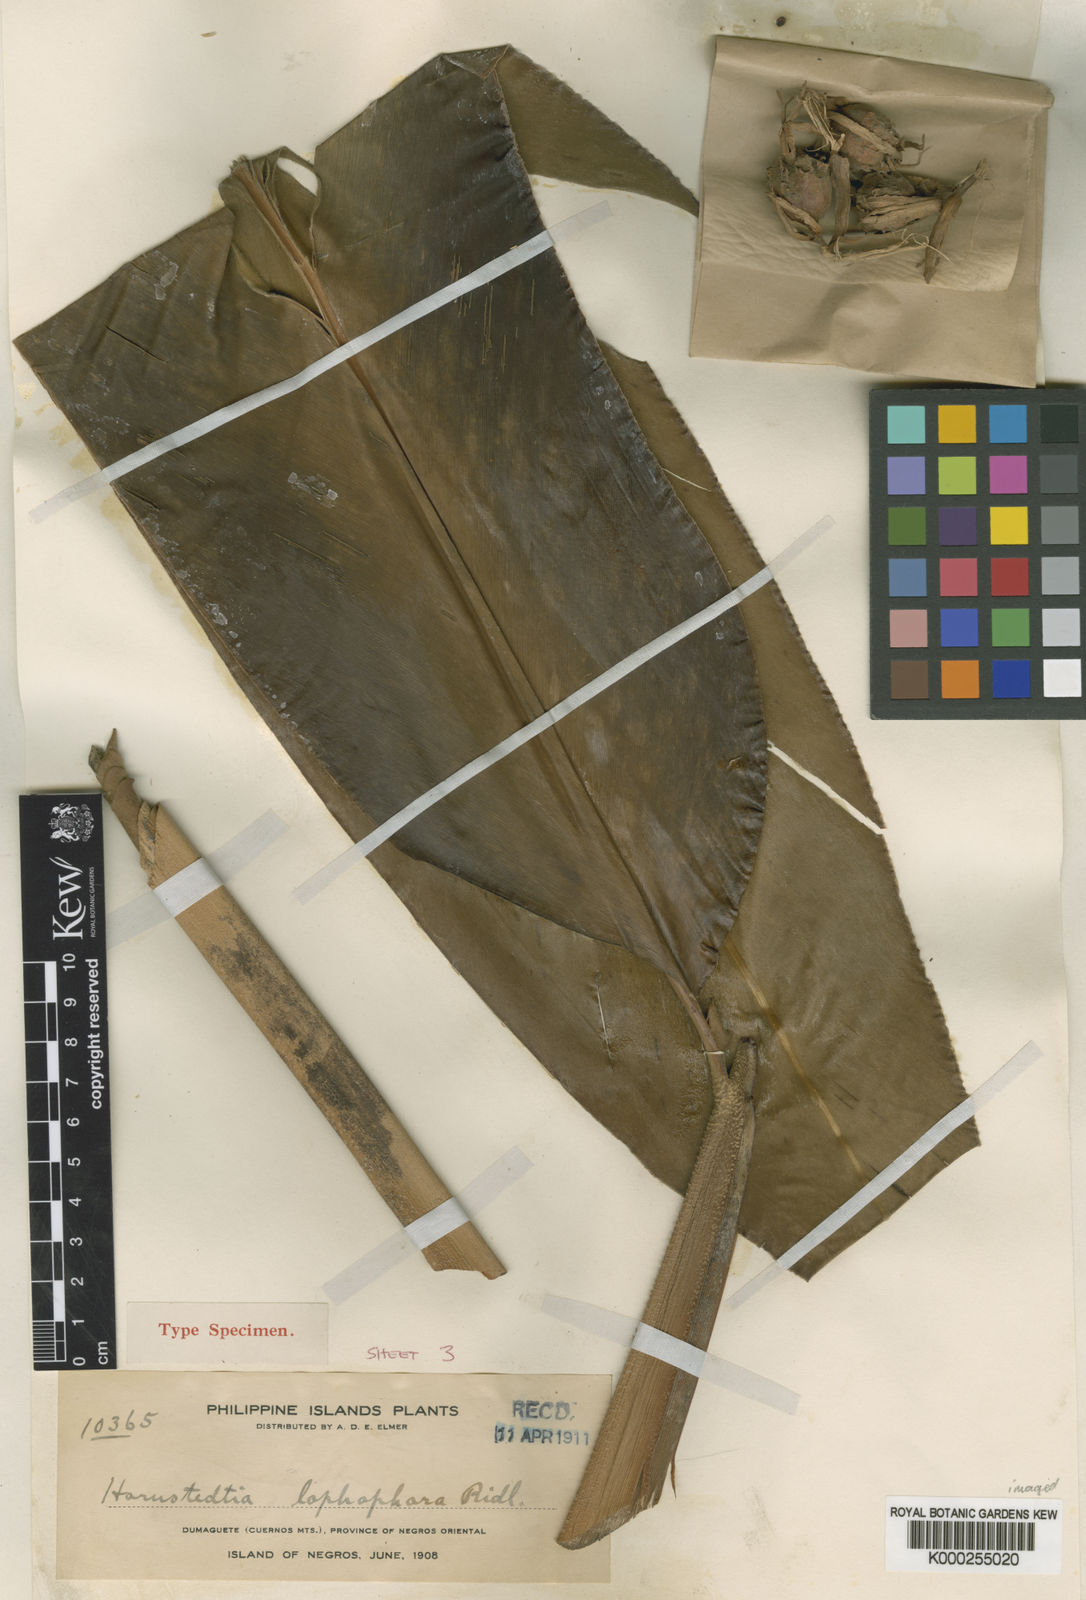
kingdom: Plantae
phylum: Tracheophyta
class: Liliopsida
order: Zingiberales
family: Zingiberaceae
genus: Hornstedtia
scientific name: Hornstedtia lophophora
